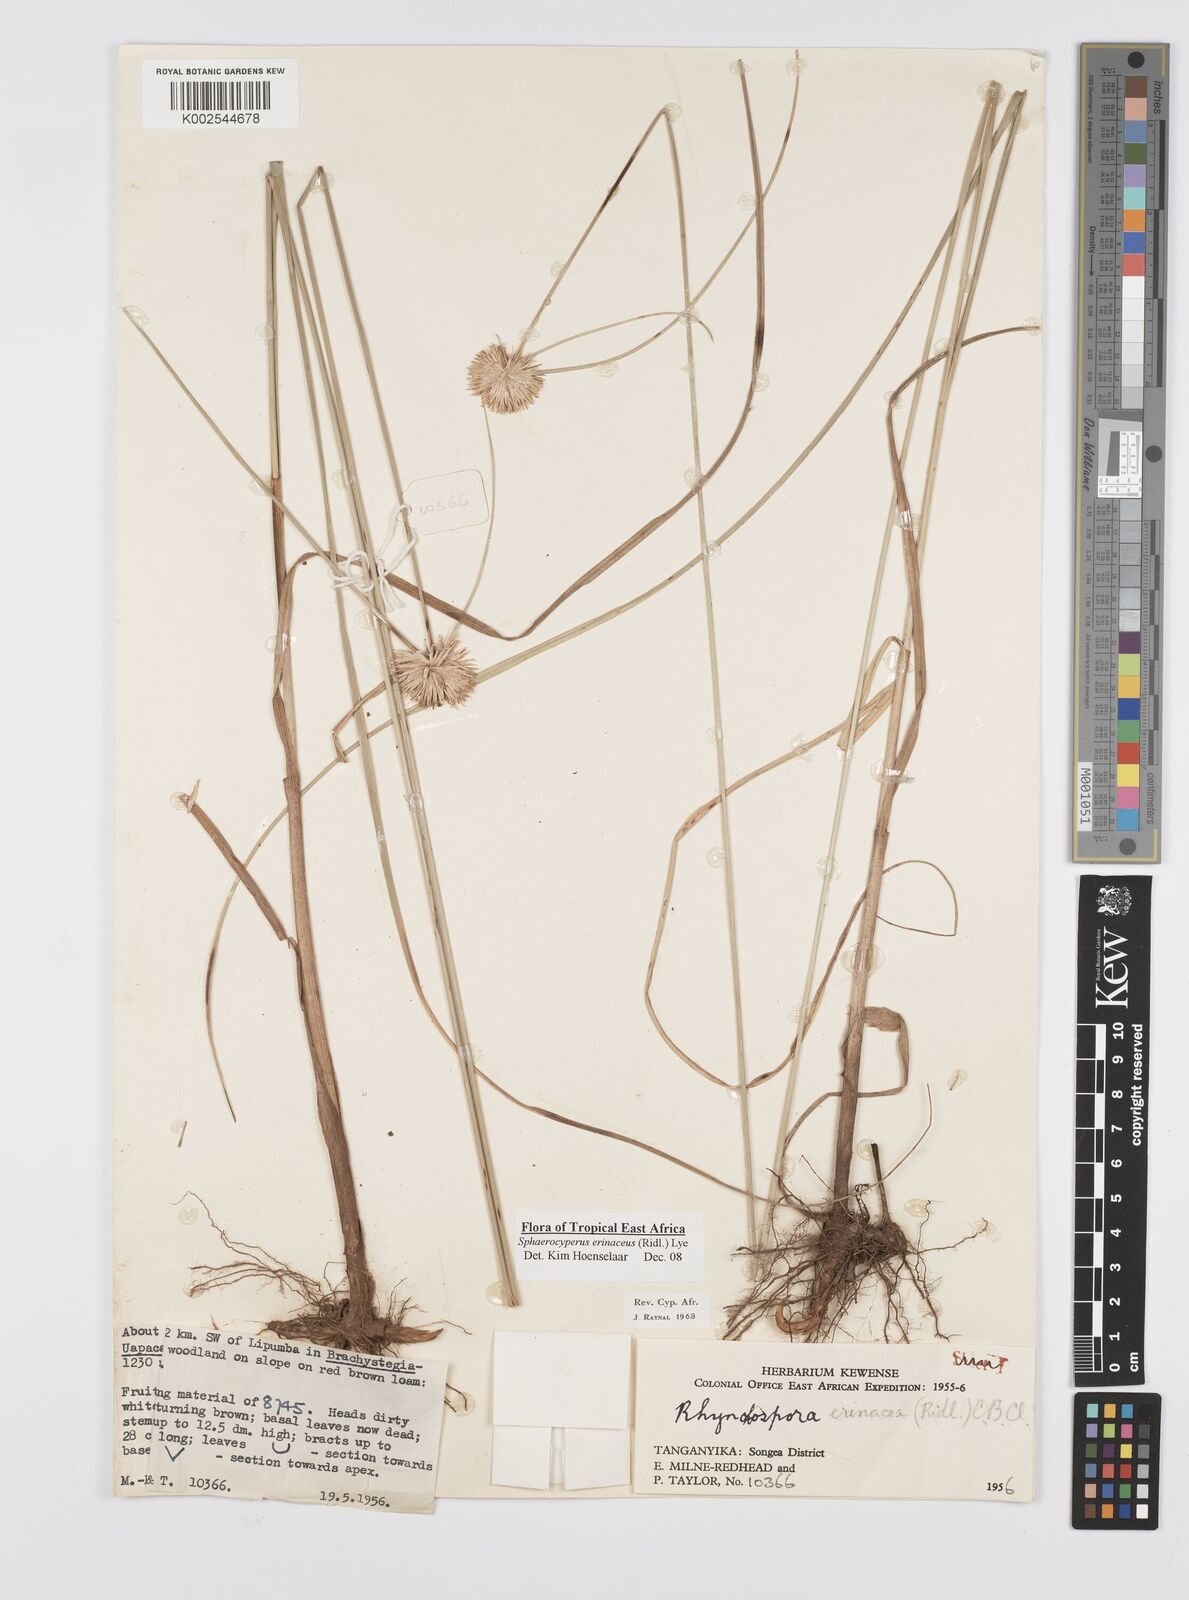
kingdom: Plantae
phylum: Tracheophyta
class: Liliopsida
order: Poales
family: Cyperaceae
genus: Cyperus
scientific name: Cyperus erinaceus
